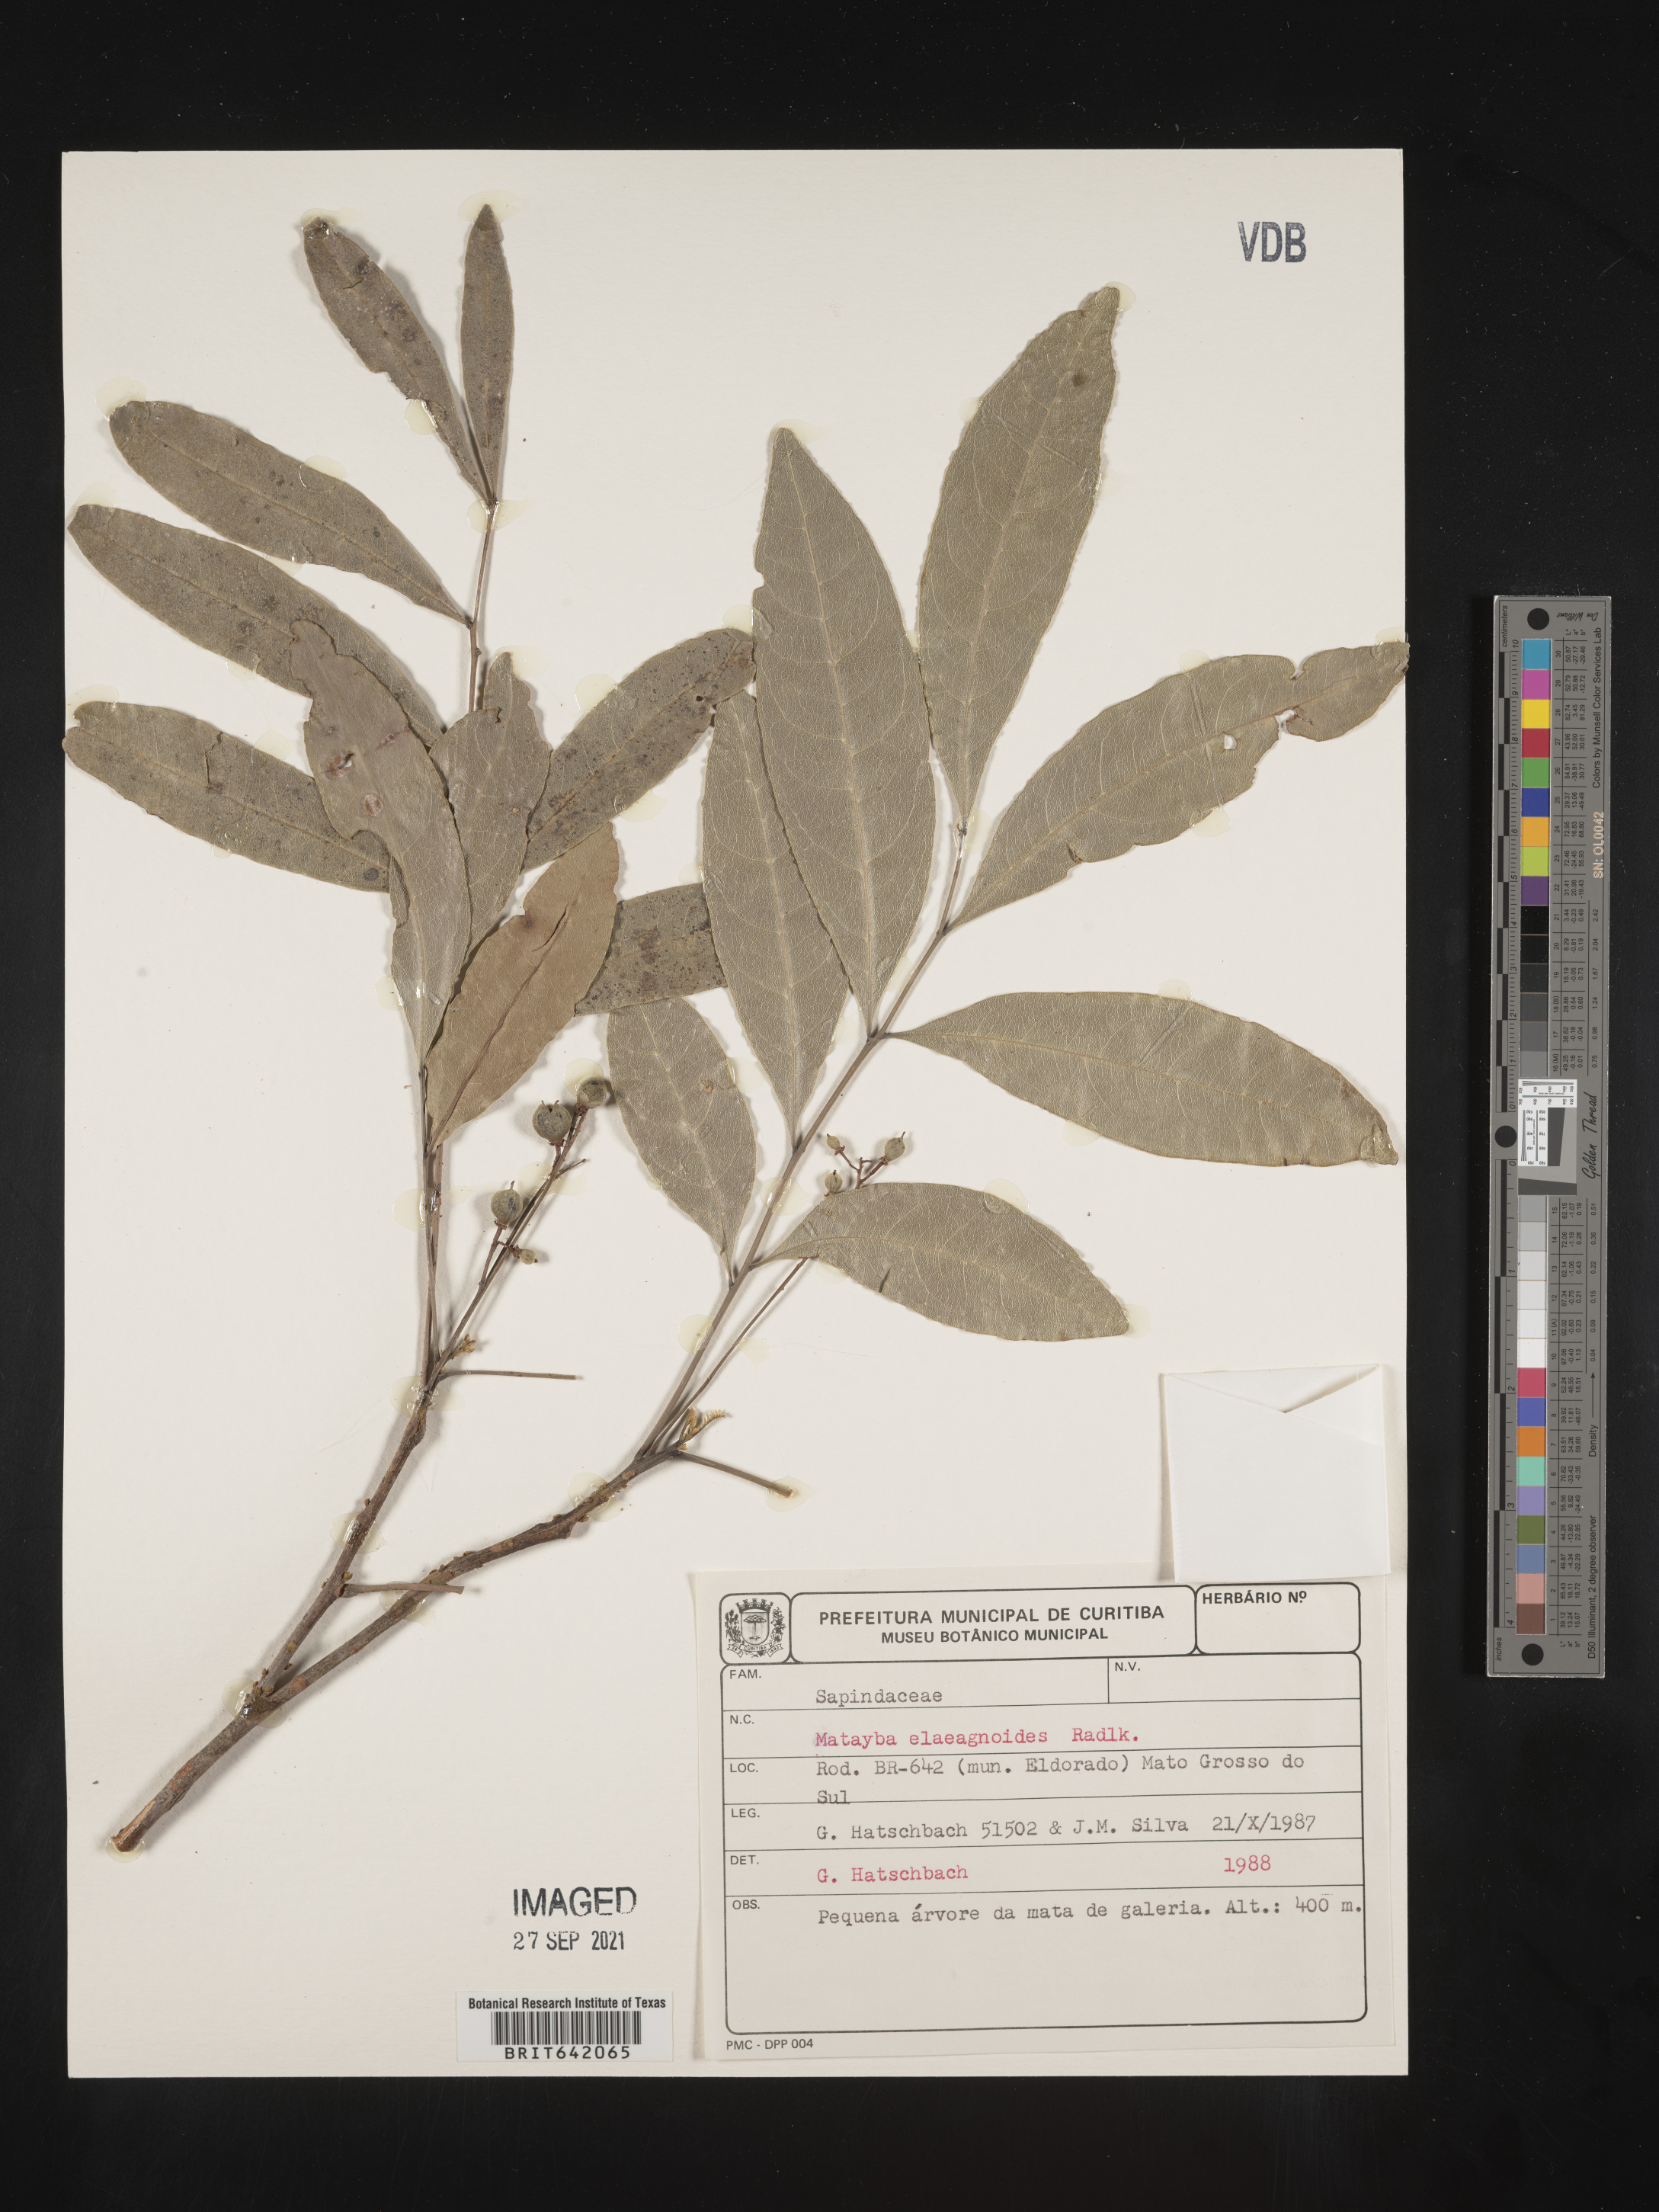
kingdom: Plantae
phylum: Tracheophyta
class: Magnoliopsida
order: Sapindales
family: Sapindaceae
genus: Matayba
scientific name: Matayba
